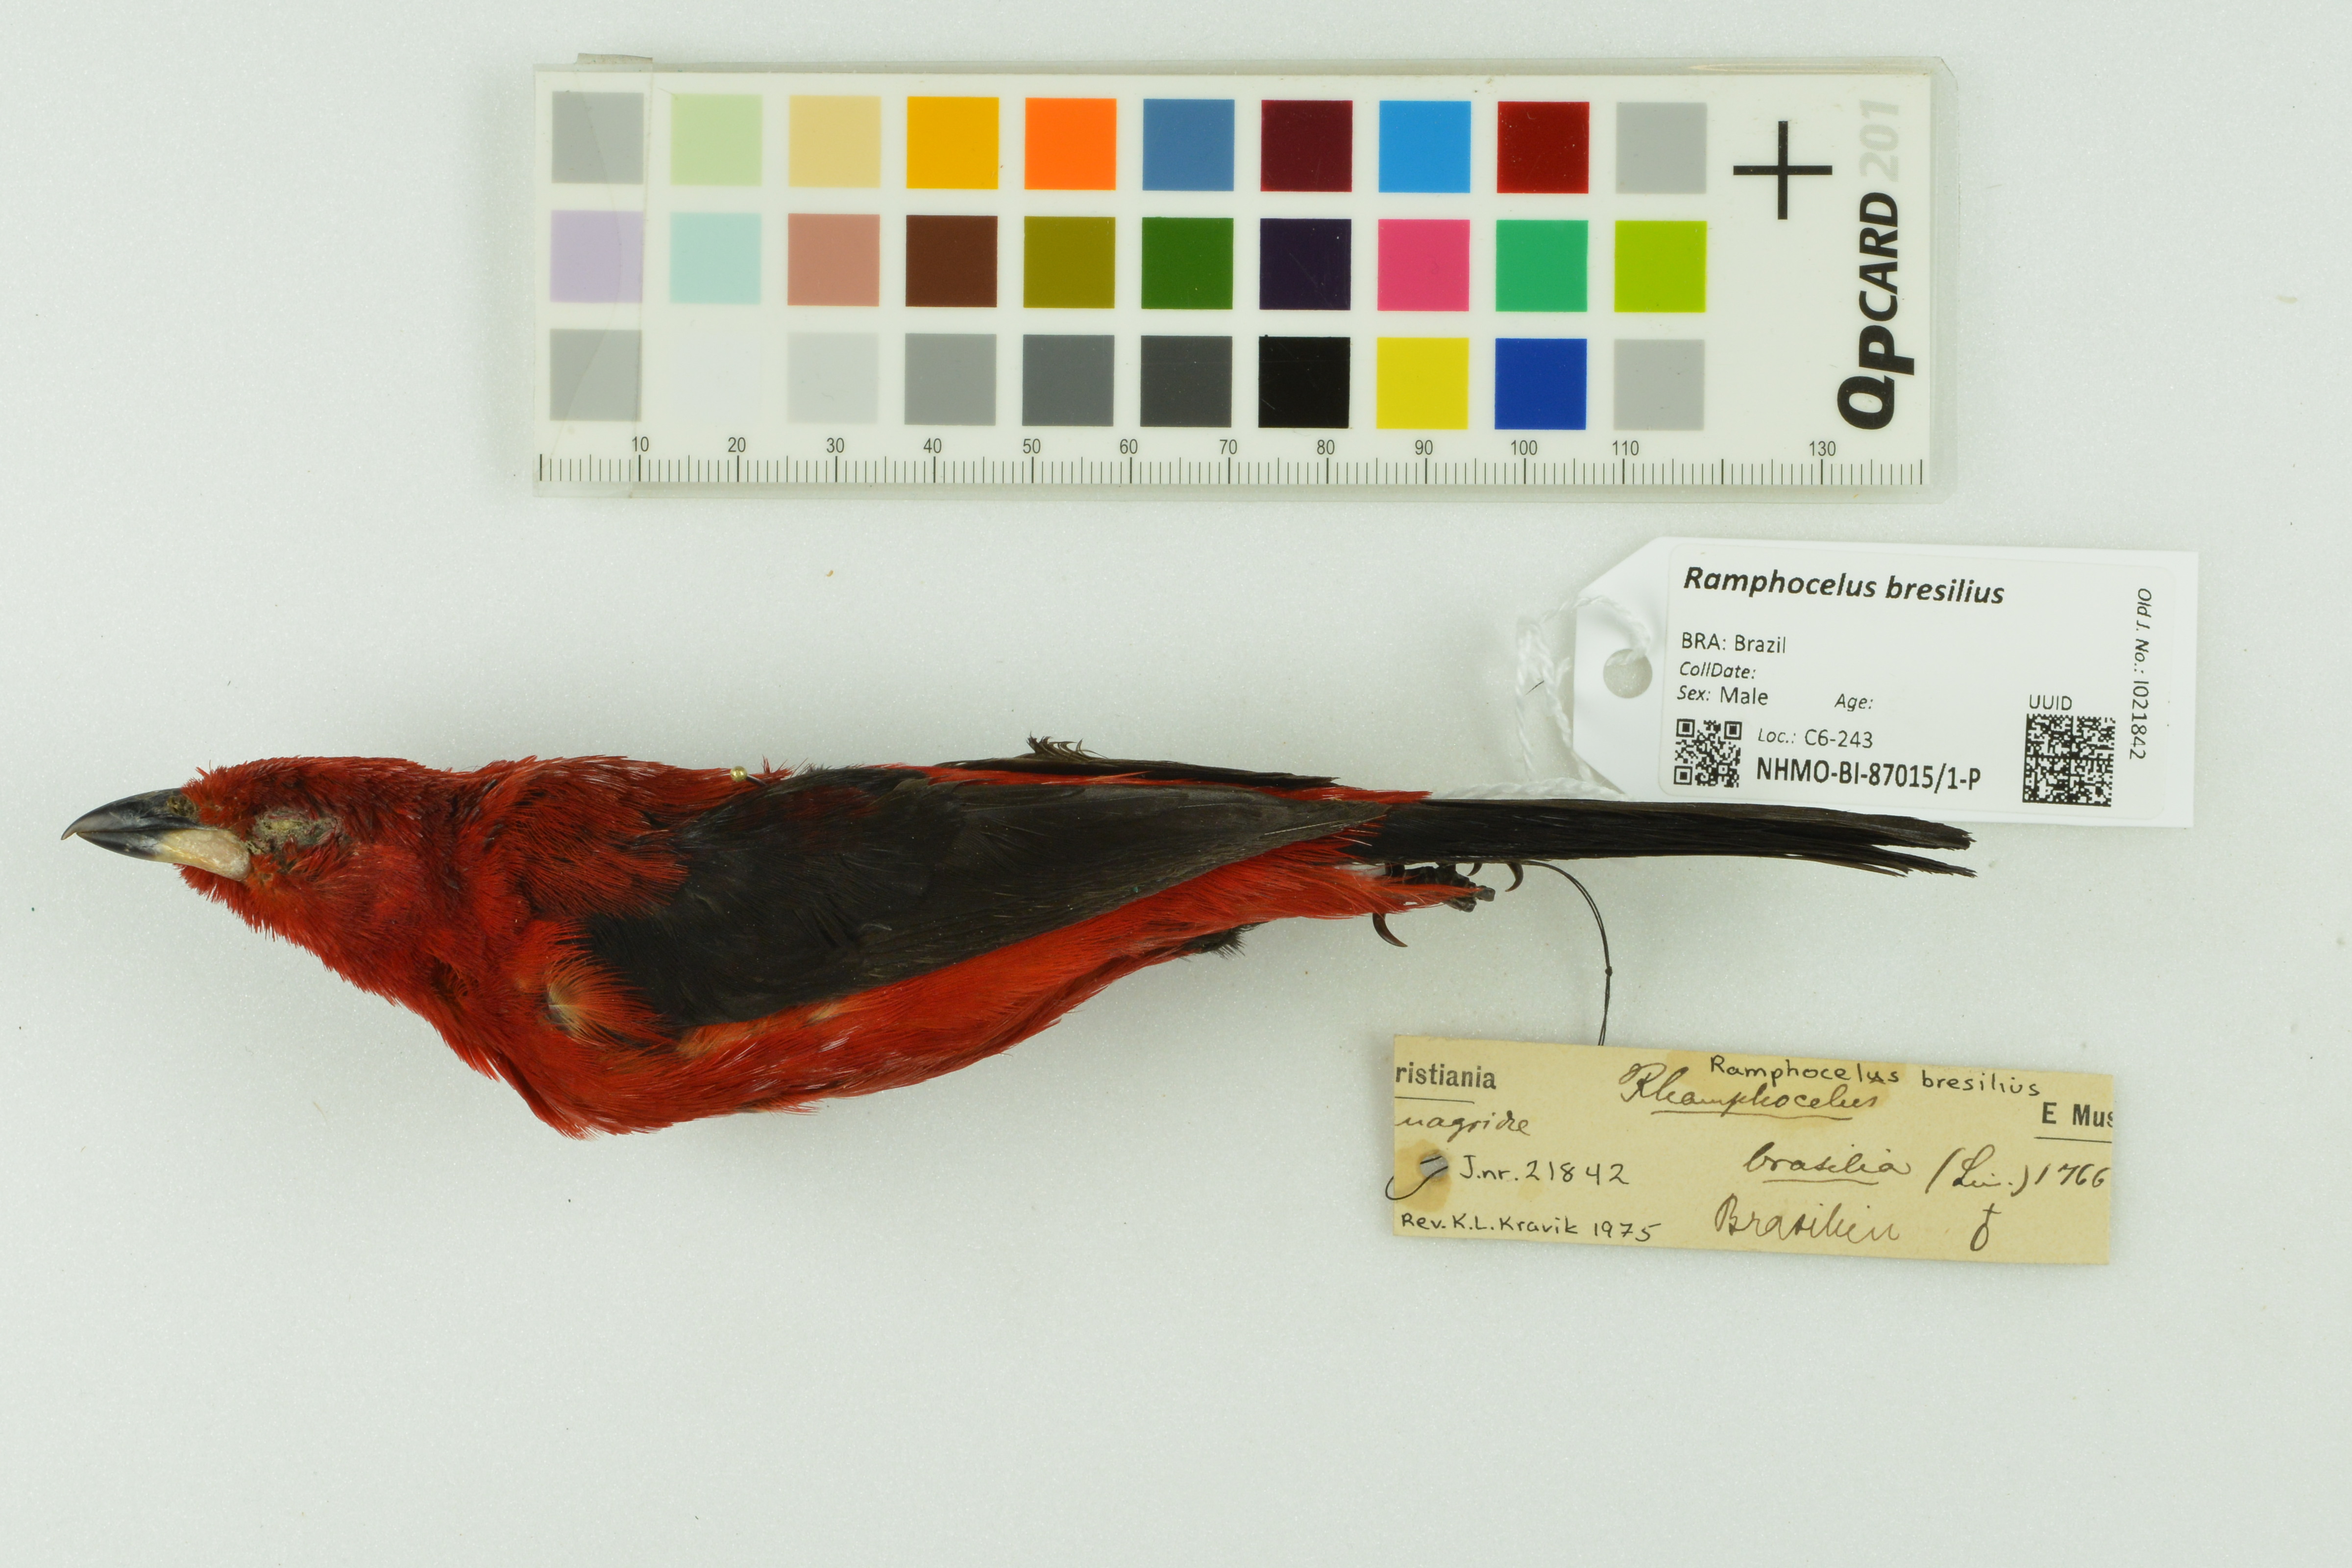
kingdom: Animalia
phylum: Chordata
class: Aves
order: Passeriformes
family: Thraupidae
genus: Ramphocelus
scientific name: Ramphocelus bresilia
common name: Brazilian tanager
